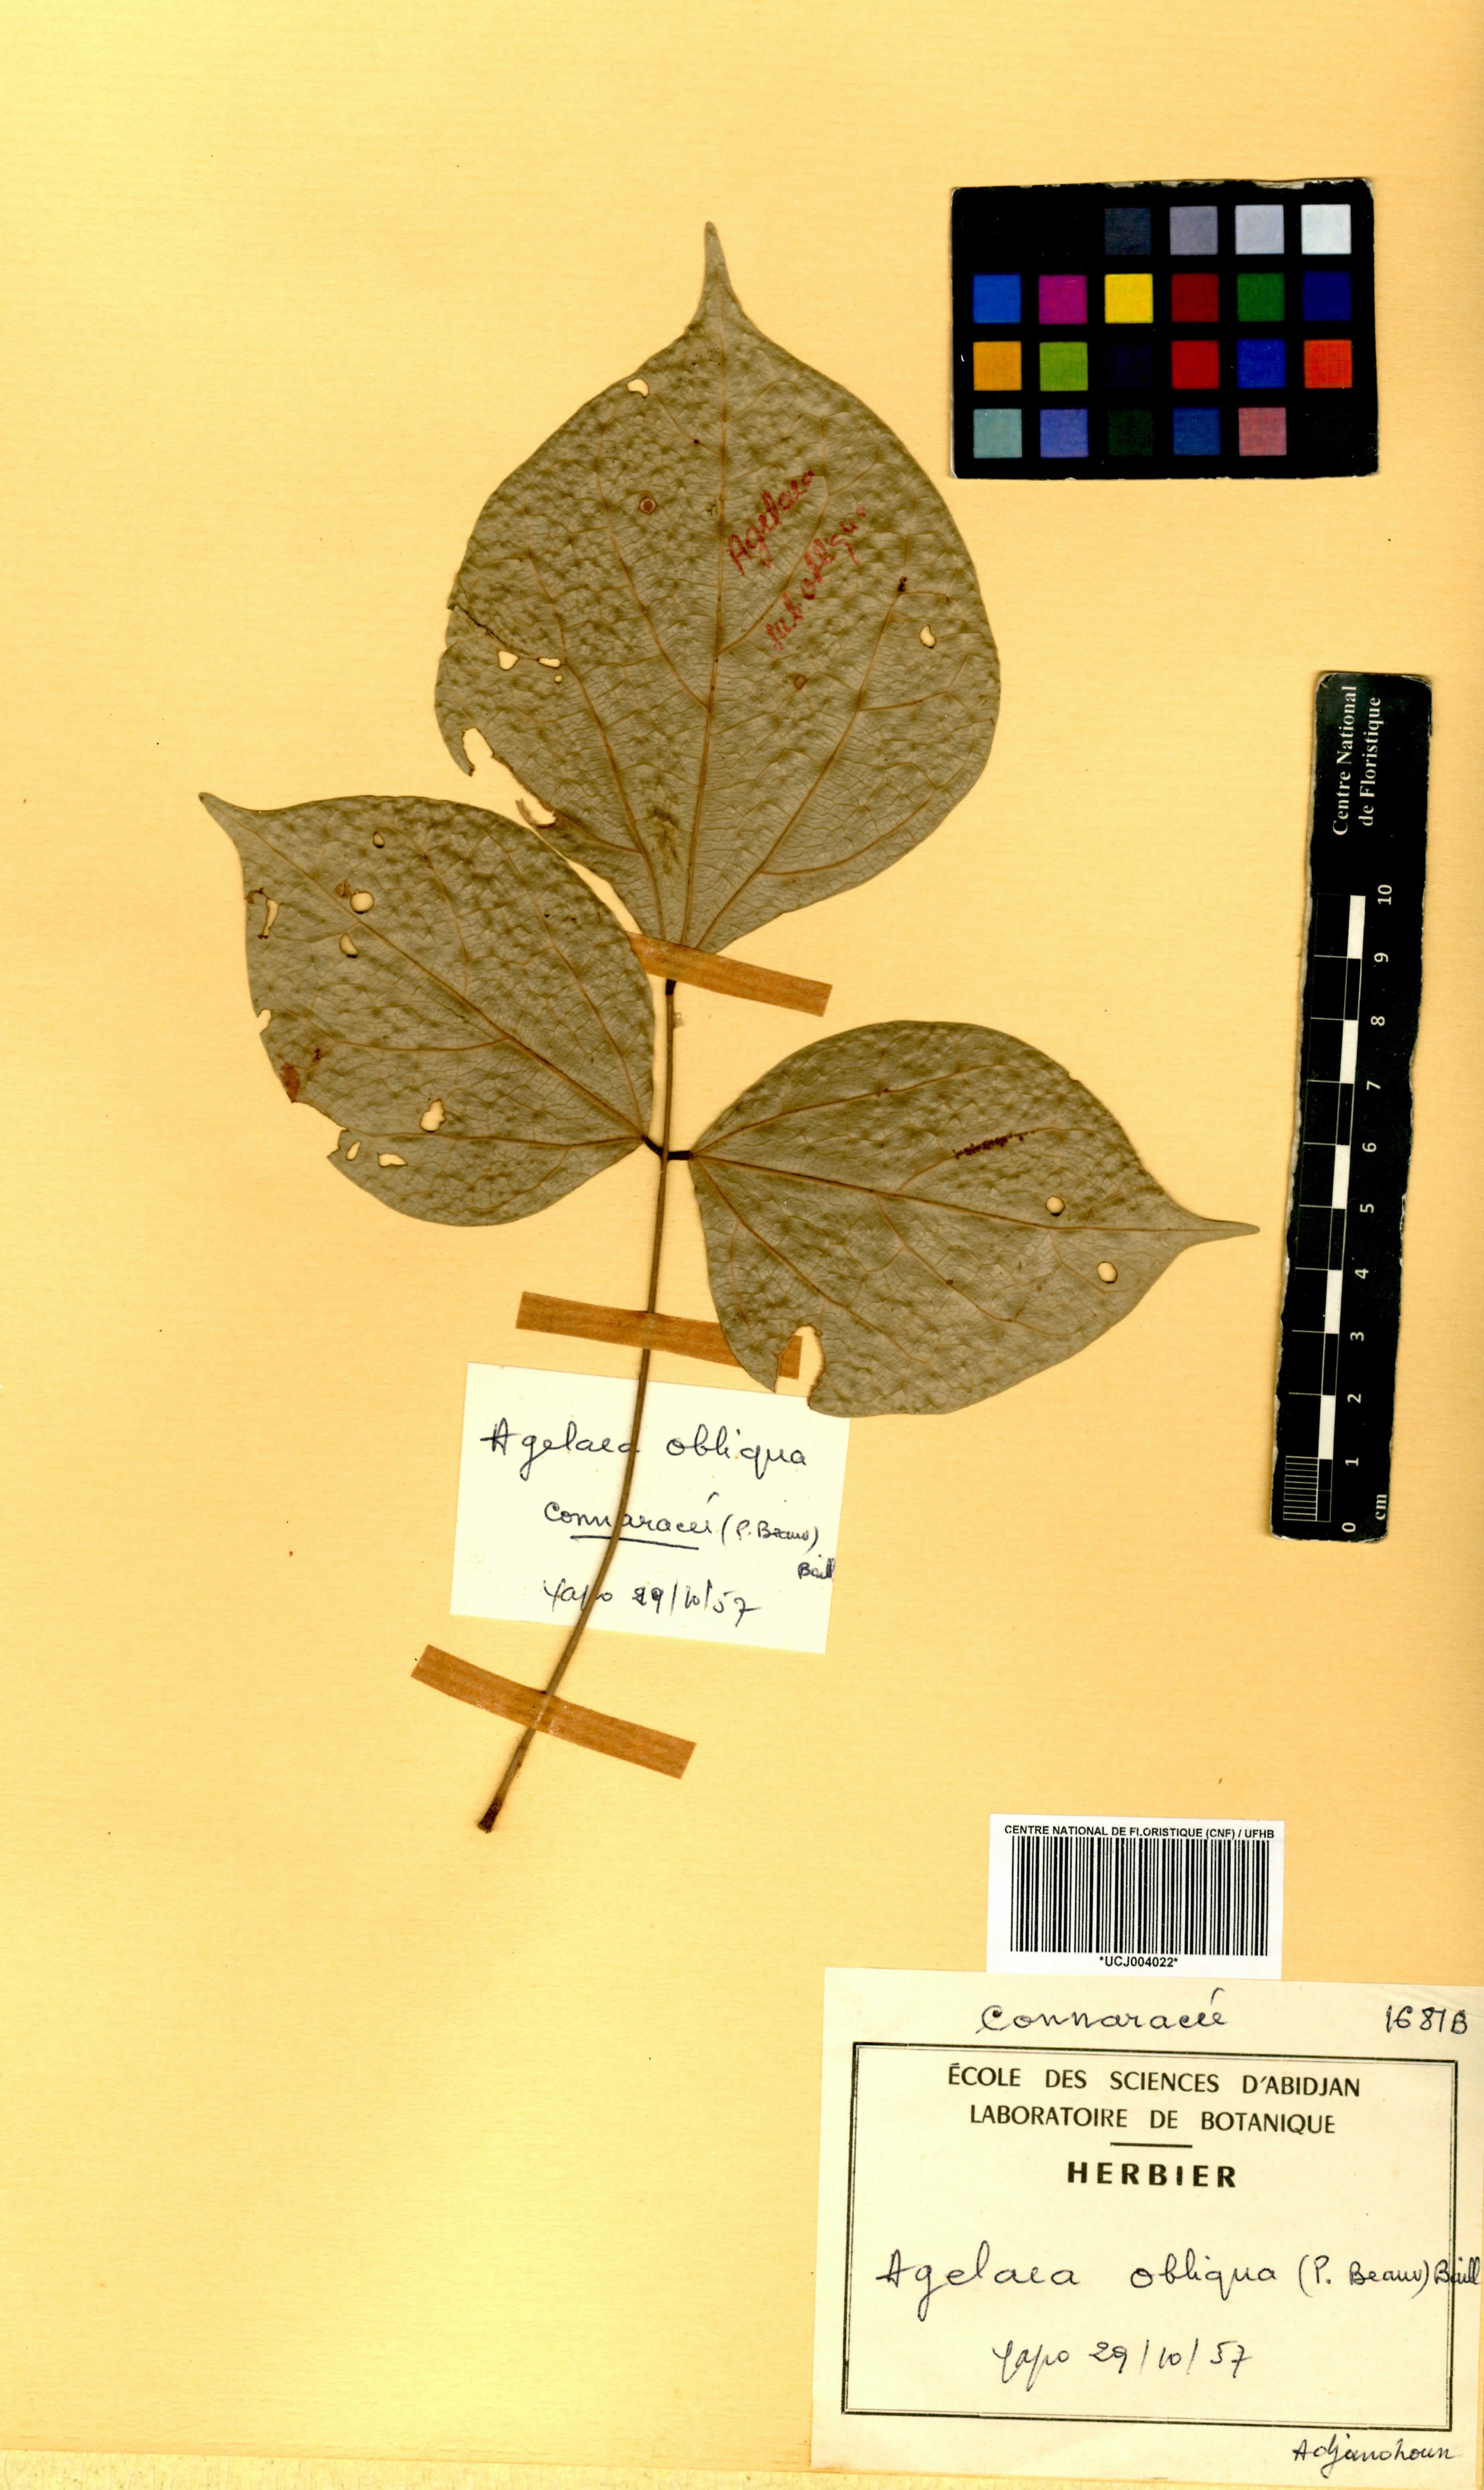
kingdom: Plantae
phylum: Tracheophyta
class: Magnoliopsida
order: Oxalidales
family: Connaraceae
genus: Agelaea
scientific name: Agelaea pentagyna
